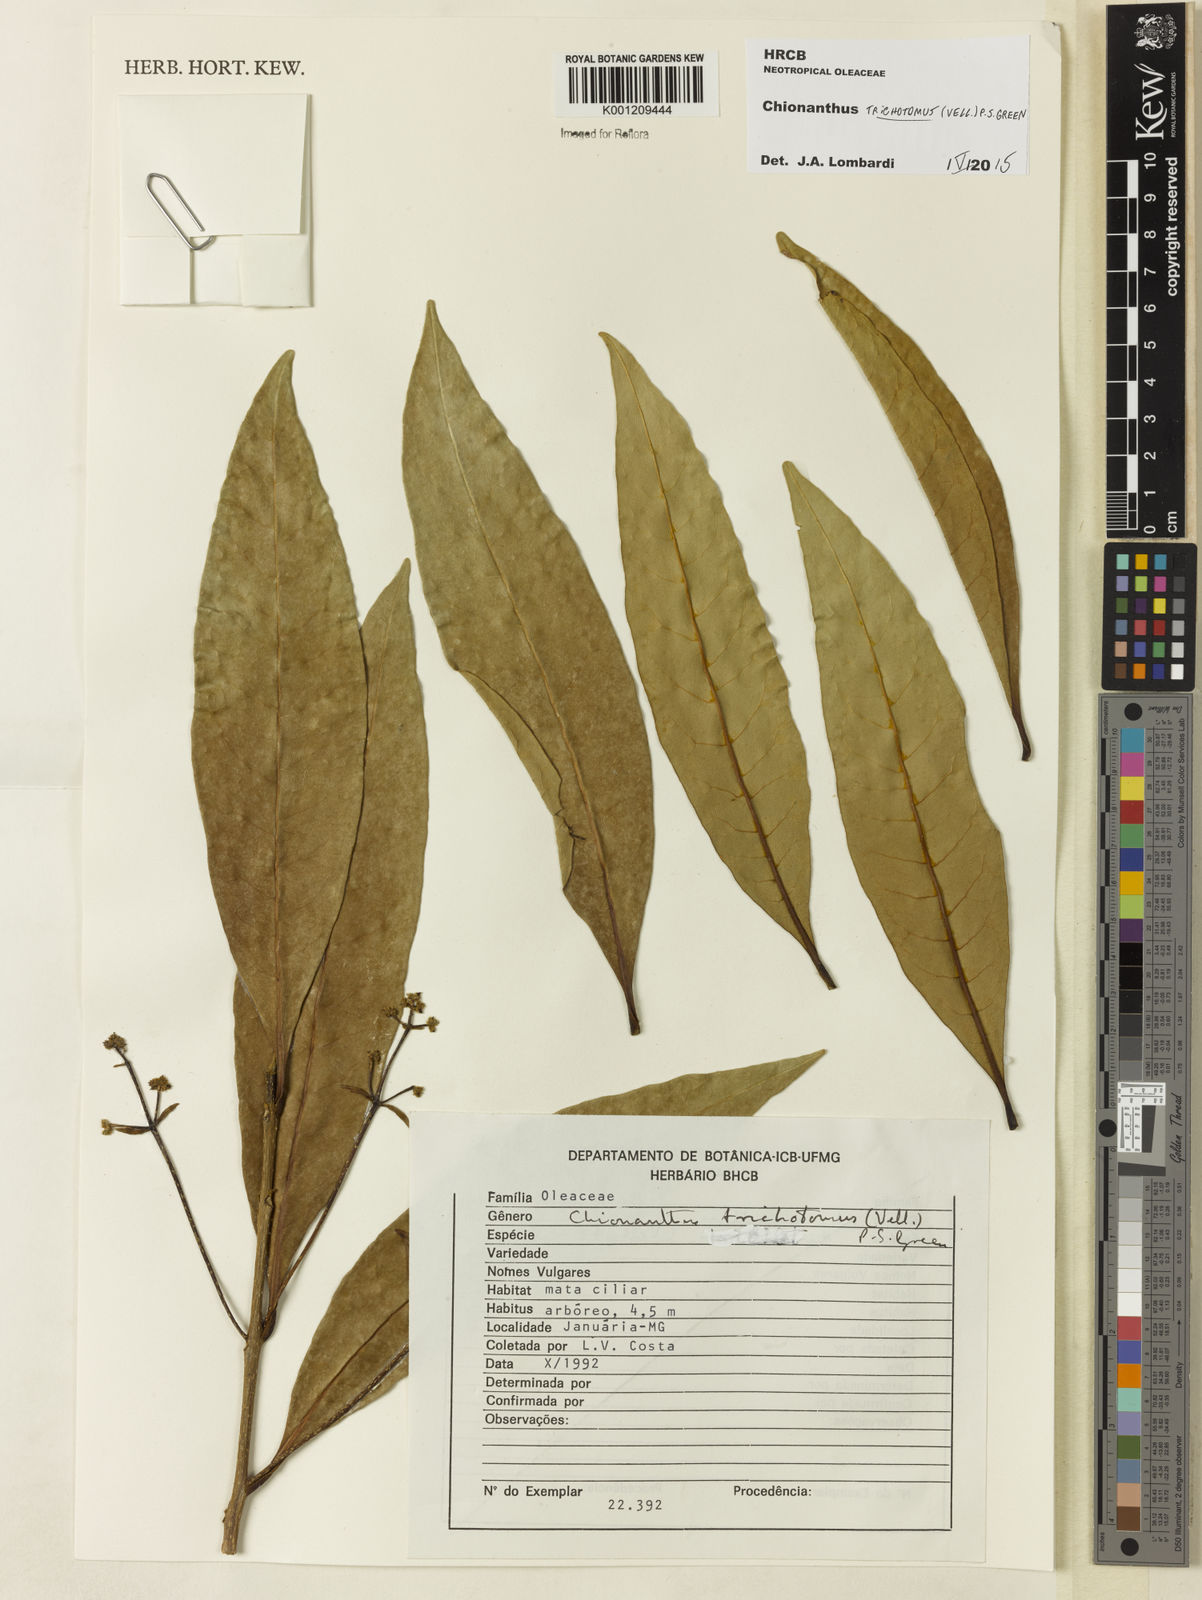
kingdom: Plantae
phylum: Tracheophyta
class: Magnoliopsida
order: Lamiales
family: Oleaceae
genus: Chionanthus
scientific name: Chionanthus trichotomus
